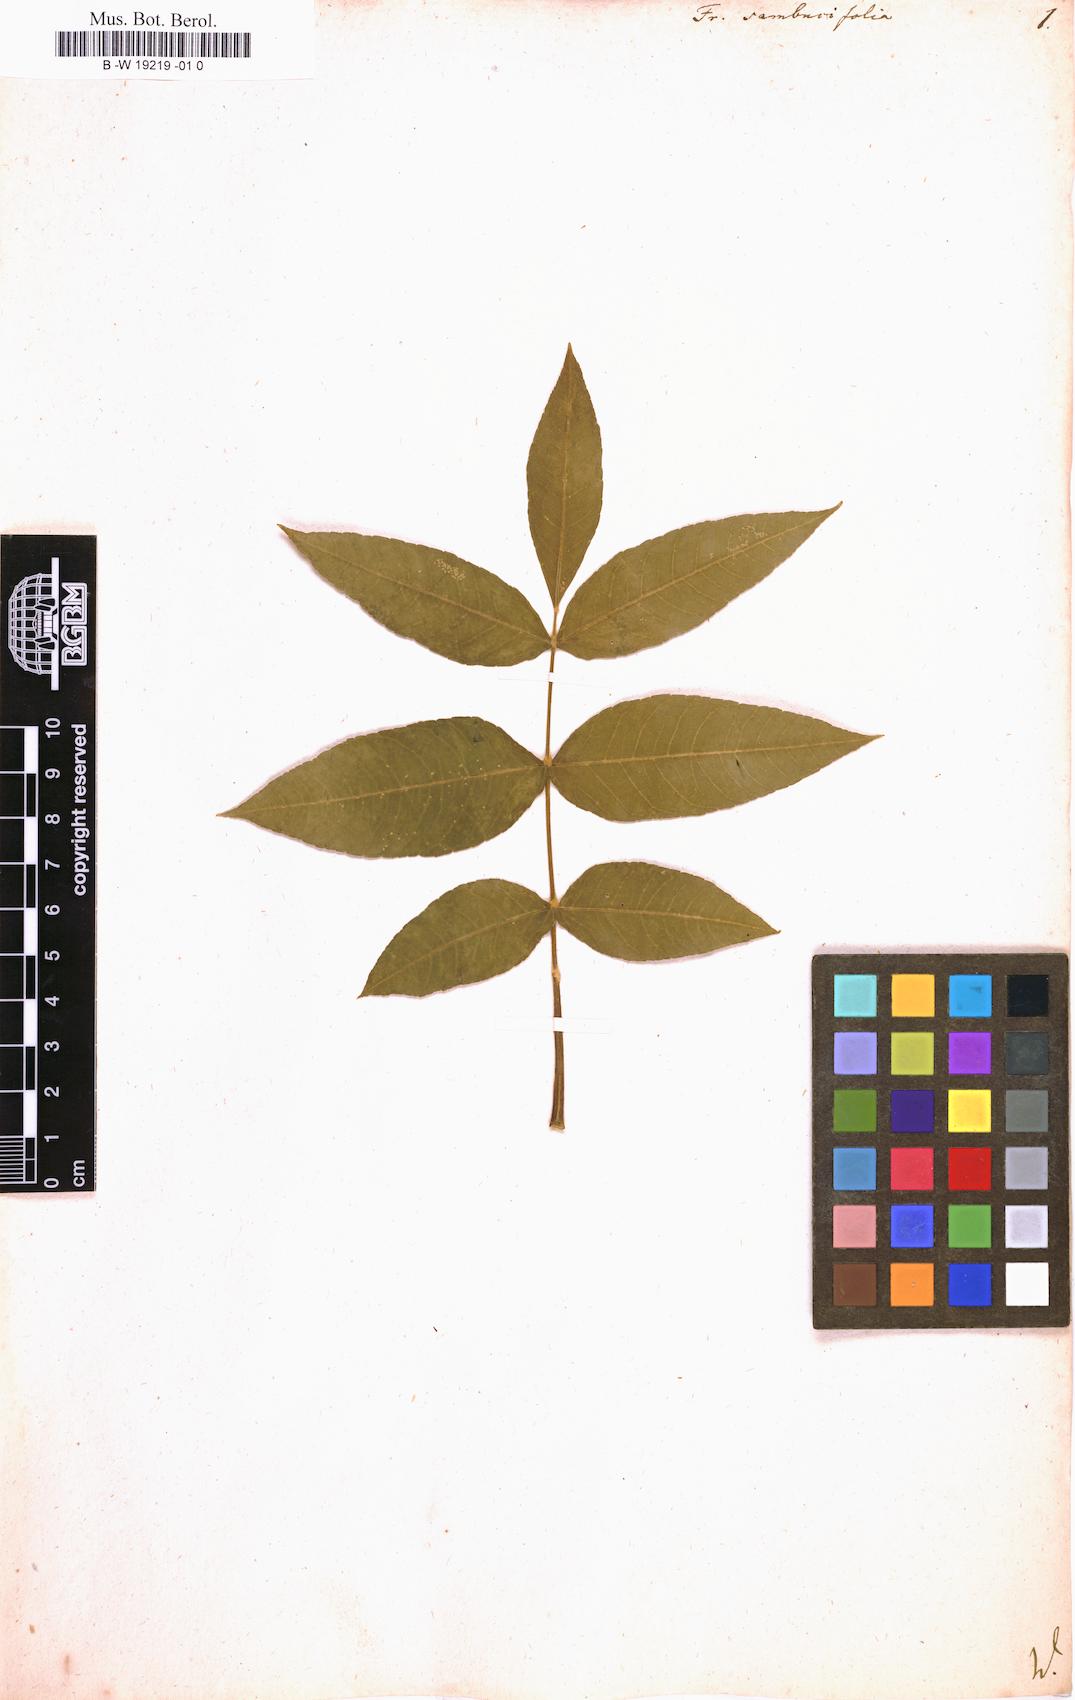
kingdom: Plantae
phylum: Tracheophyta
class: Magnoliopsida
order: Lamiales
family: Oleaceae
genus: Fraxinus
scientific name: Fraxinus nigra
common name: Black ash
